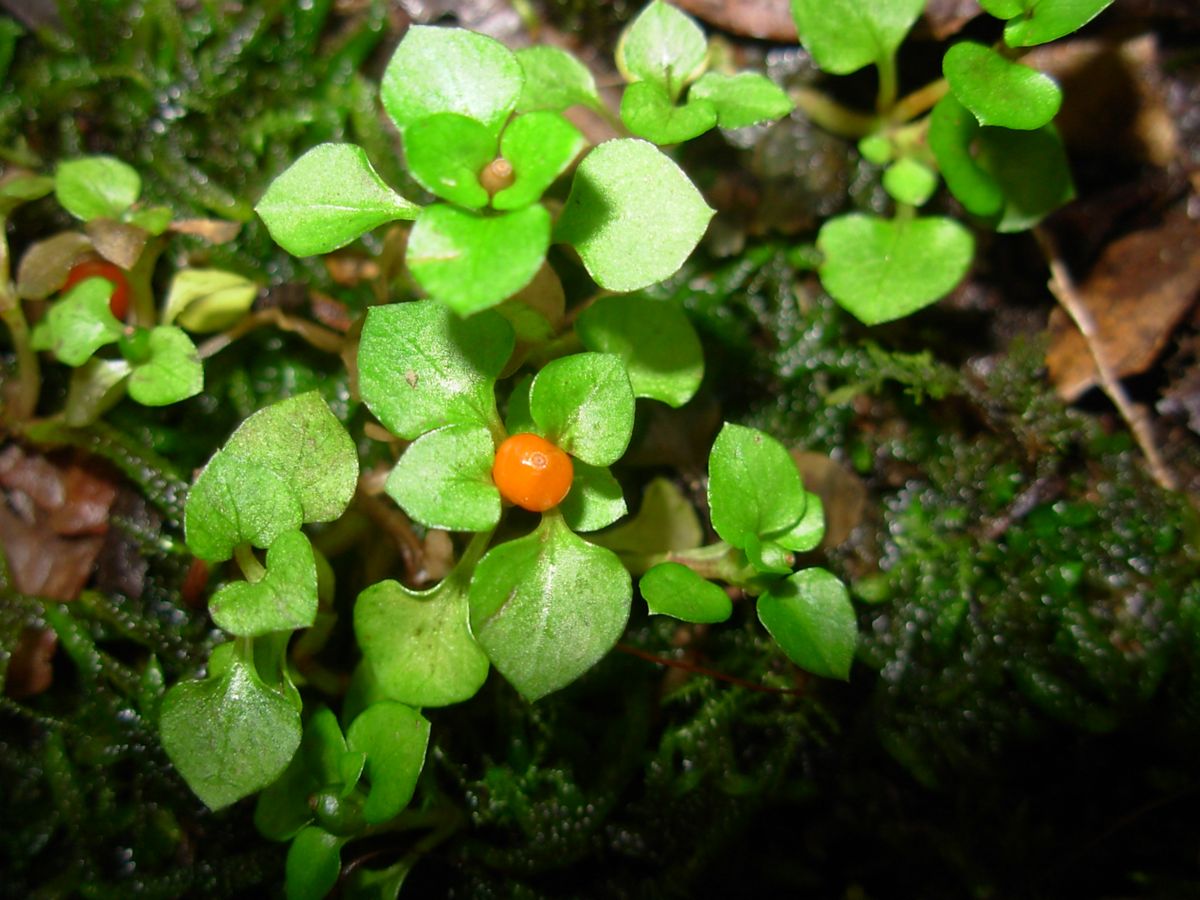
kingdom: Plantae
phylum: Tracheophyta
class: Magnoliopsida
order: Gentianales
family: Rubiaceae
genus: Nertera
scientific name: Nertera granadensis
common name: Beadplant
